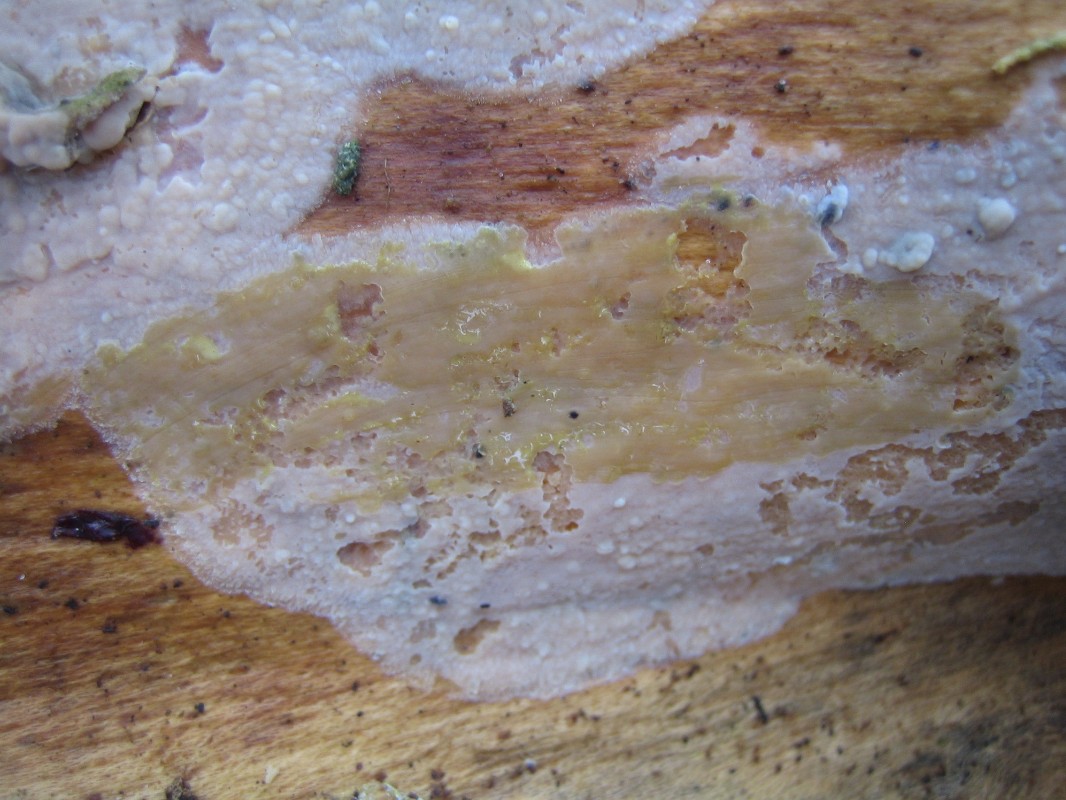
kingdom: Fungi
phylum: Basidiomycota
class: Agaricomycetes
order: Corticiales
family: Corticiaceae
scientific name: Corticiaceae
